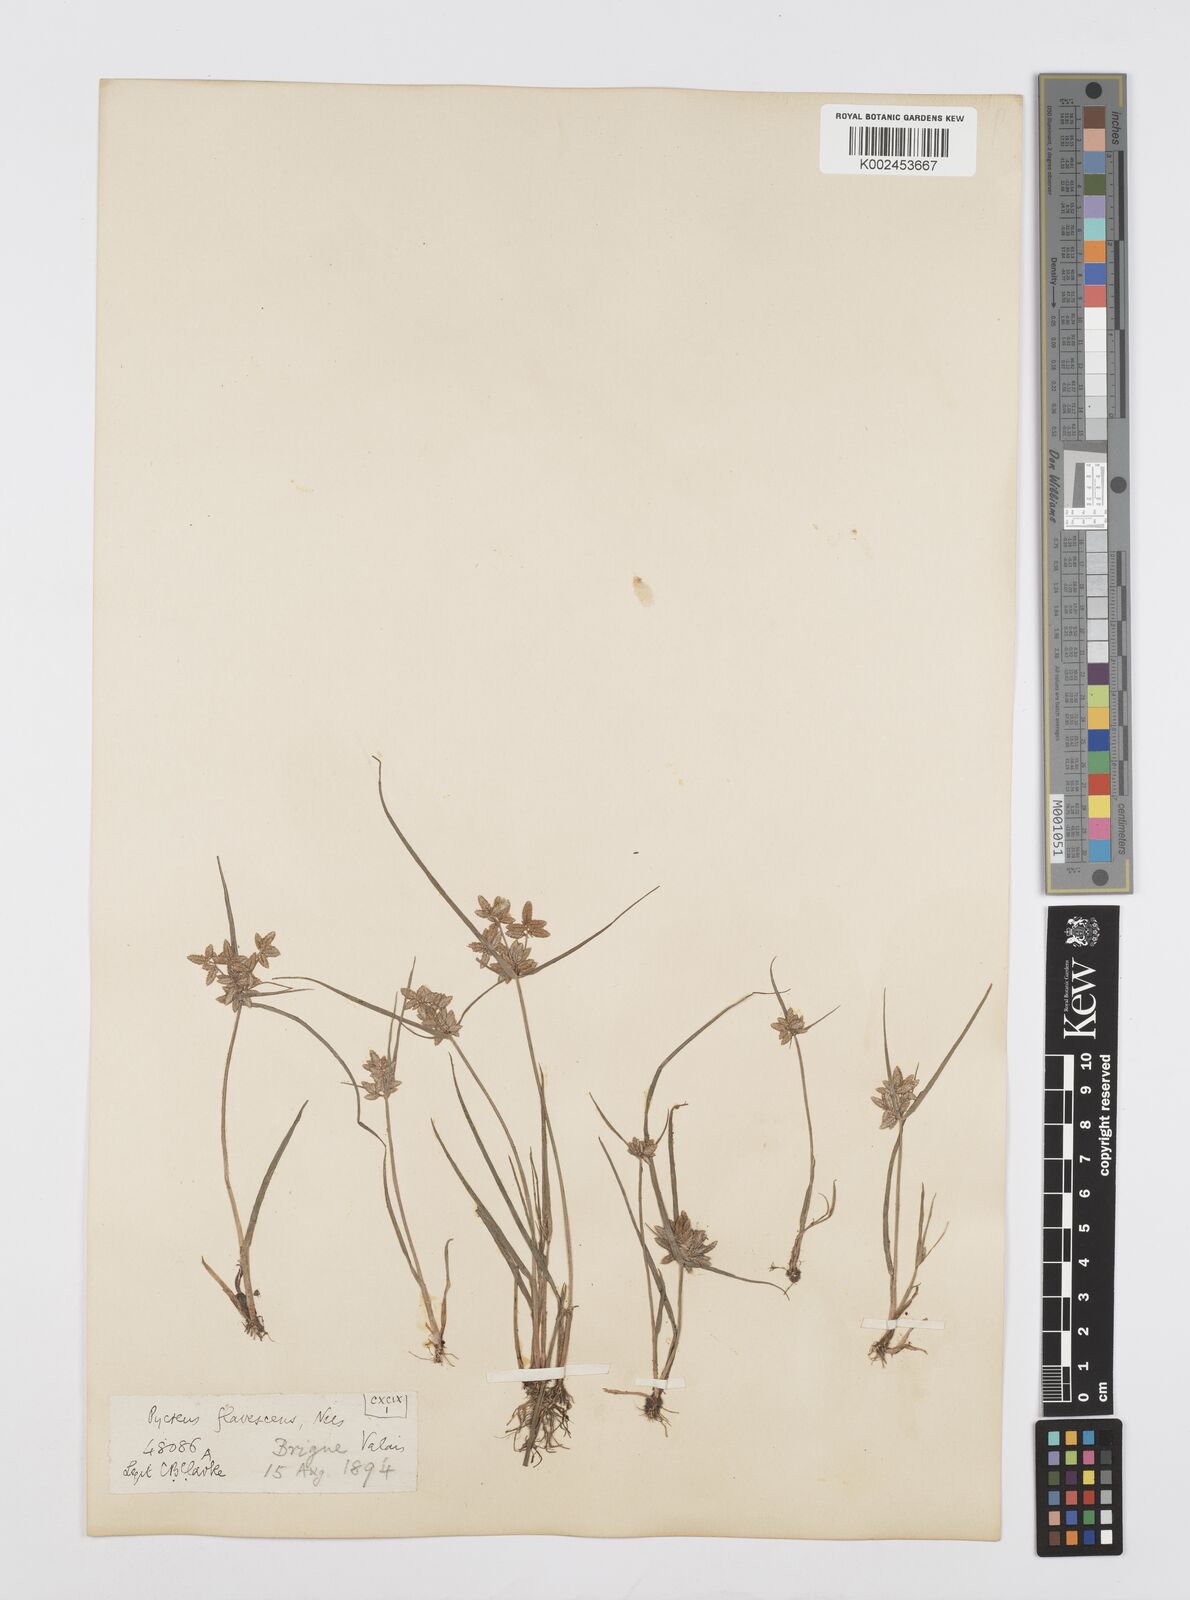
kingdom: Plantae
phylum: Tracheophyta
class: Liliopsida
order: Poales
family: Cyperaceae
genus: Cyperus
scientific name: Cyperus flavescens
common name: Yellow galingale
